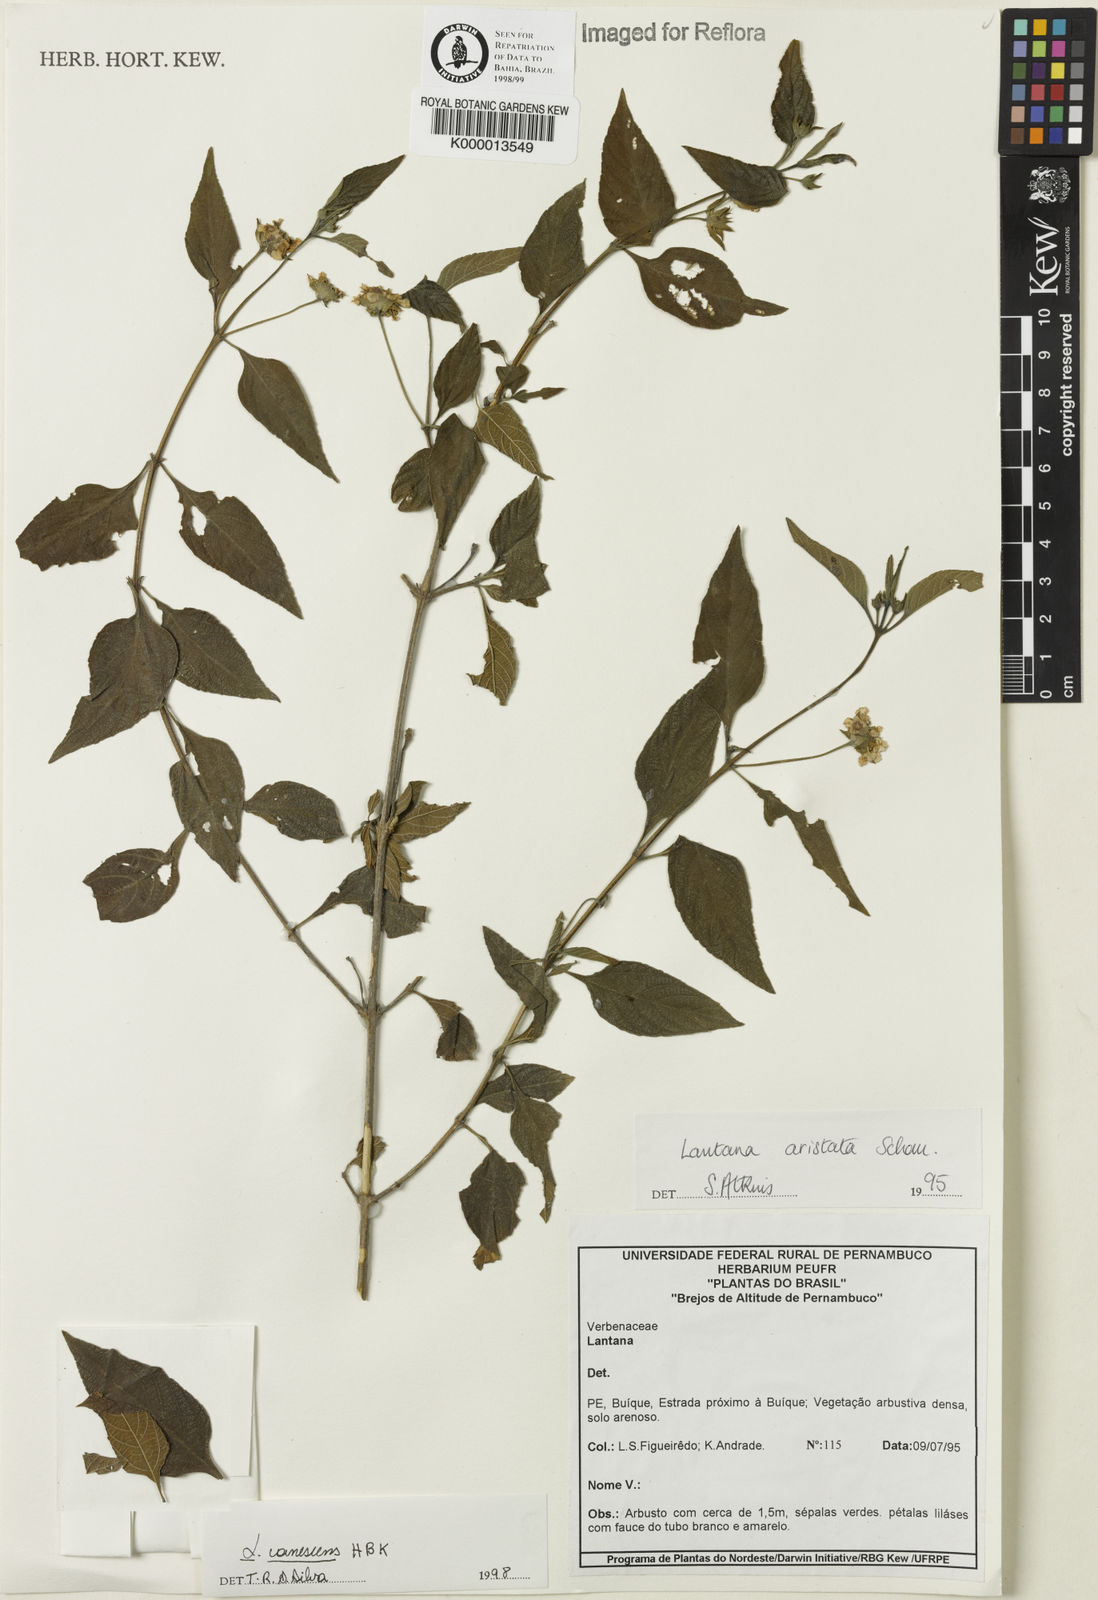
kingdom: Plantae
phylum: Tracheophyta
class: Magnoliopsida
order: Lamiales
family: Verbenaceae
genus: Lantana
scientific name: Lantana canescens
